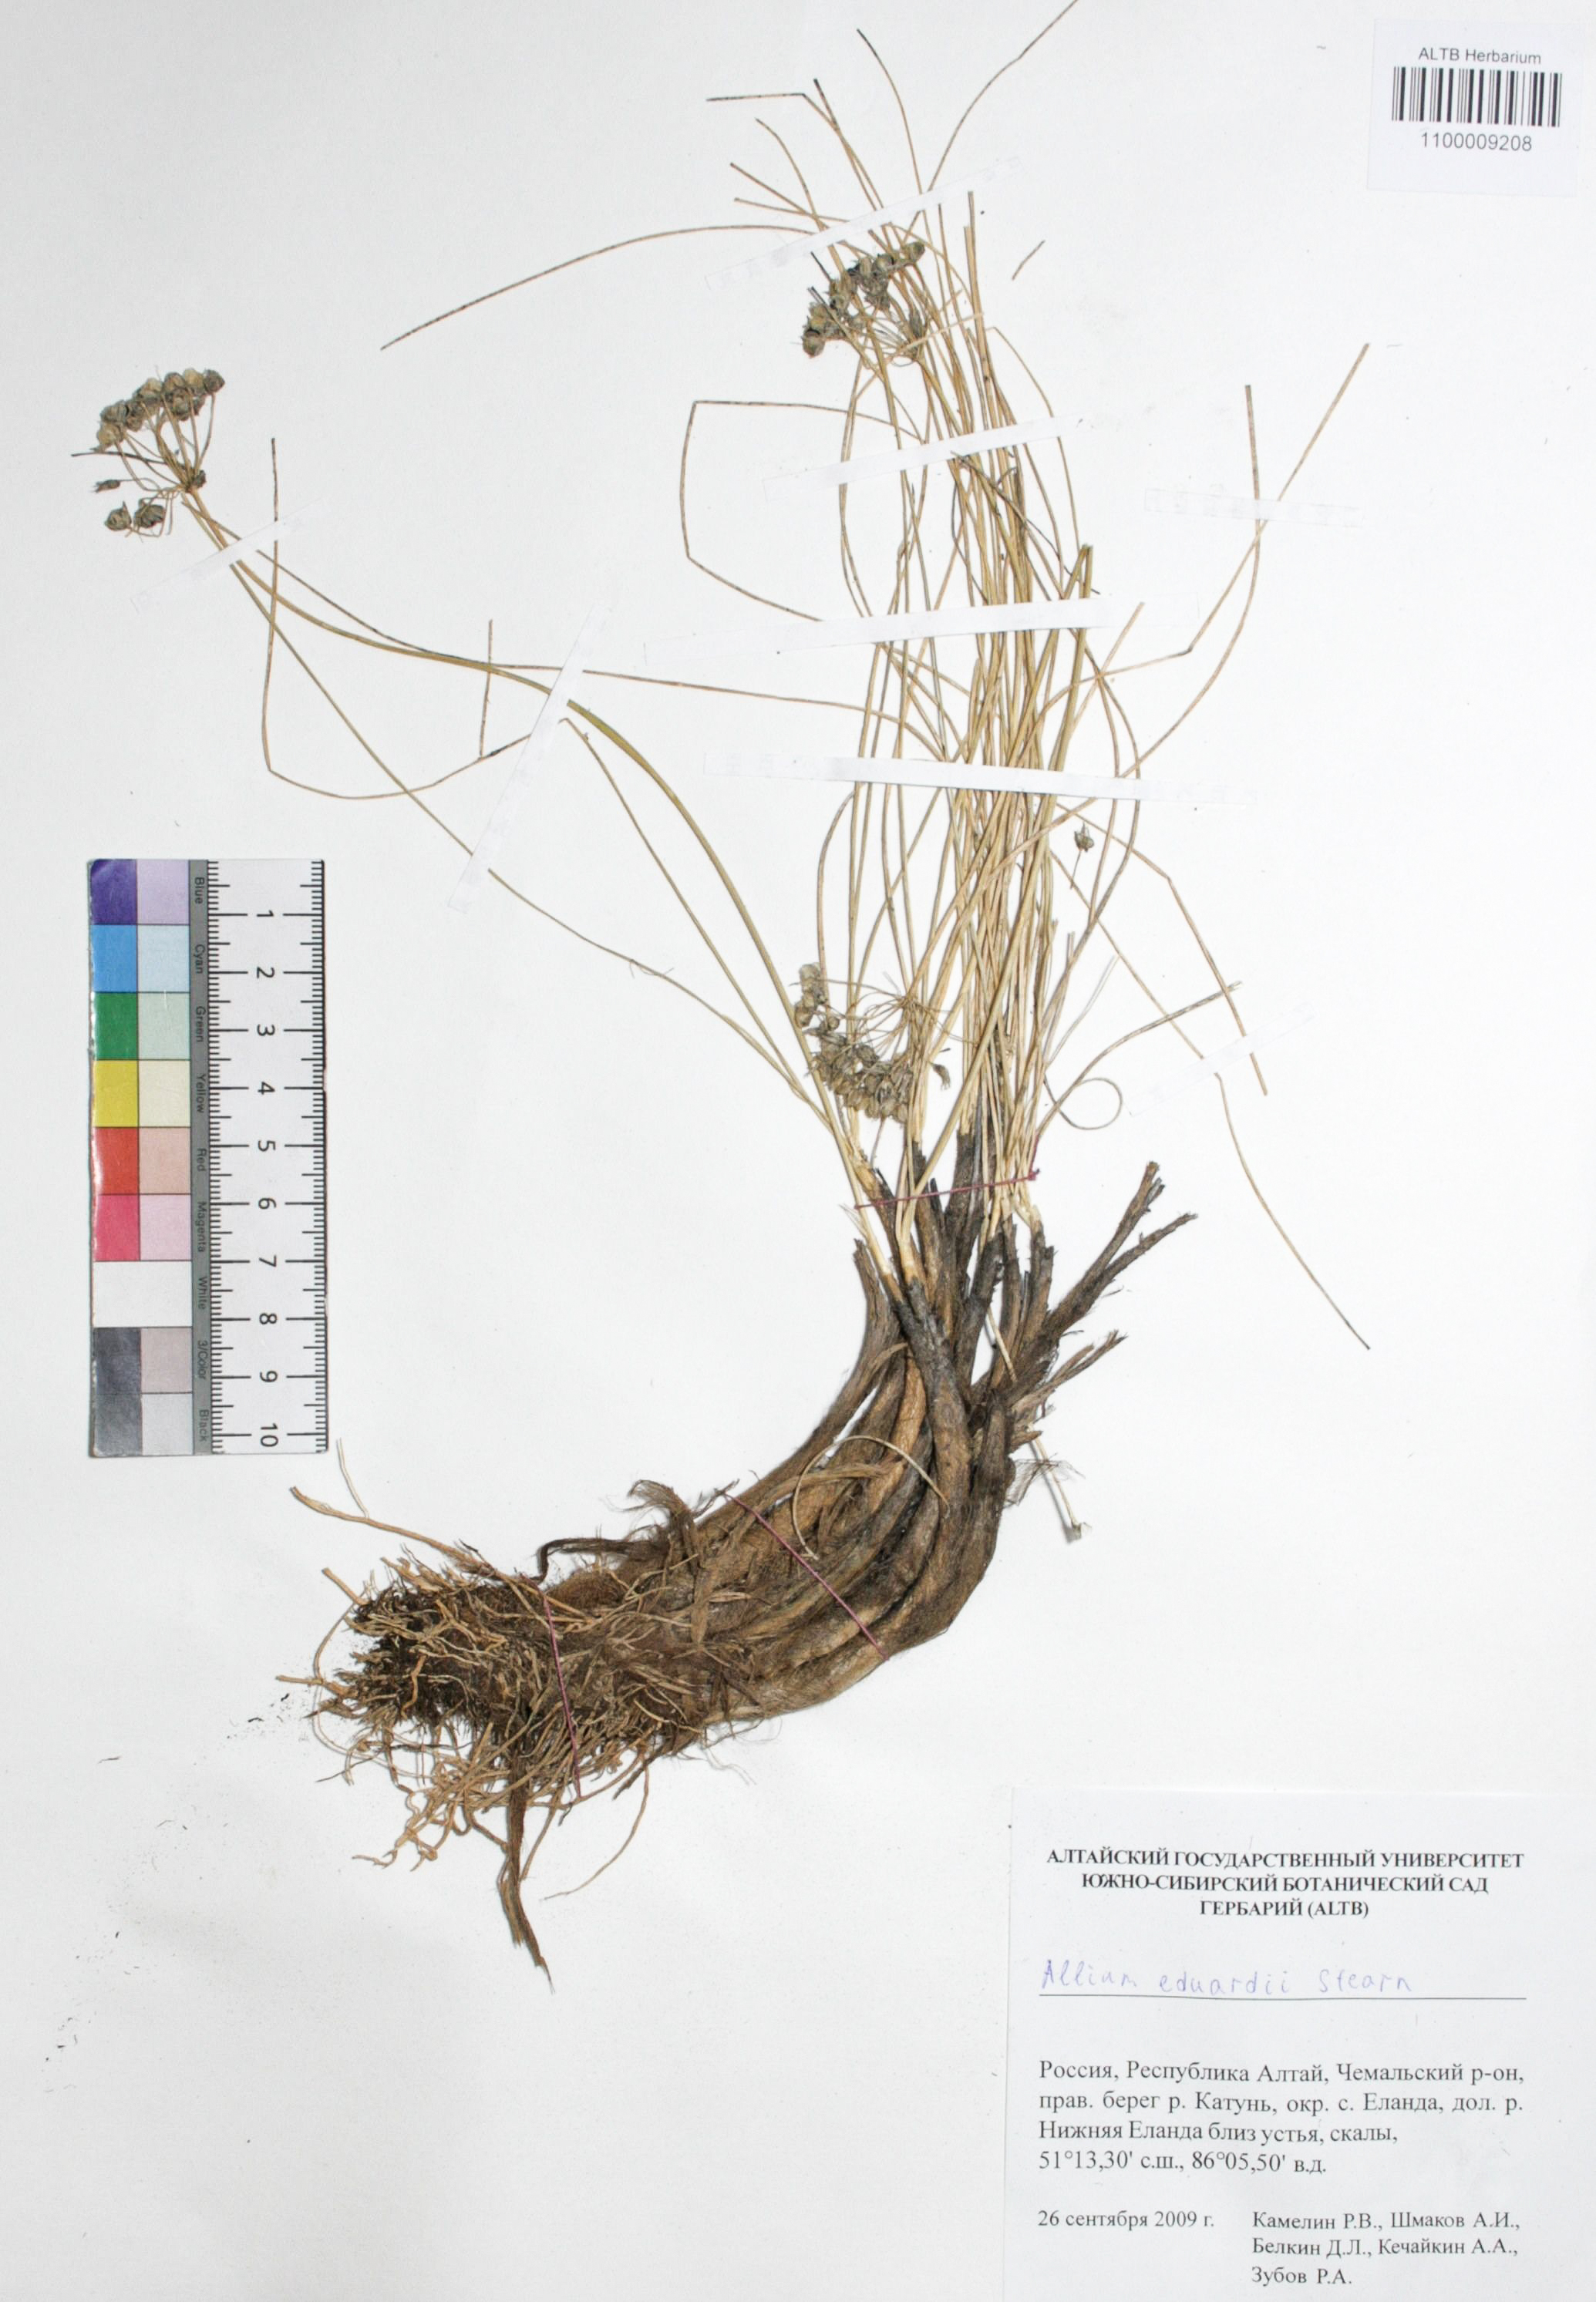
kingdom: Plantae
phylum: Tracheophyta
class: Liliopsida
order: Asparagales
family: Amaryllidaceae
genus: Allium
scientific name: Allium eduardi
